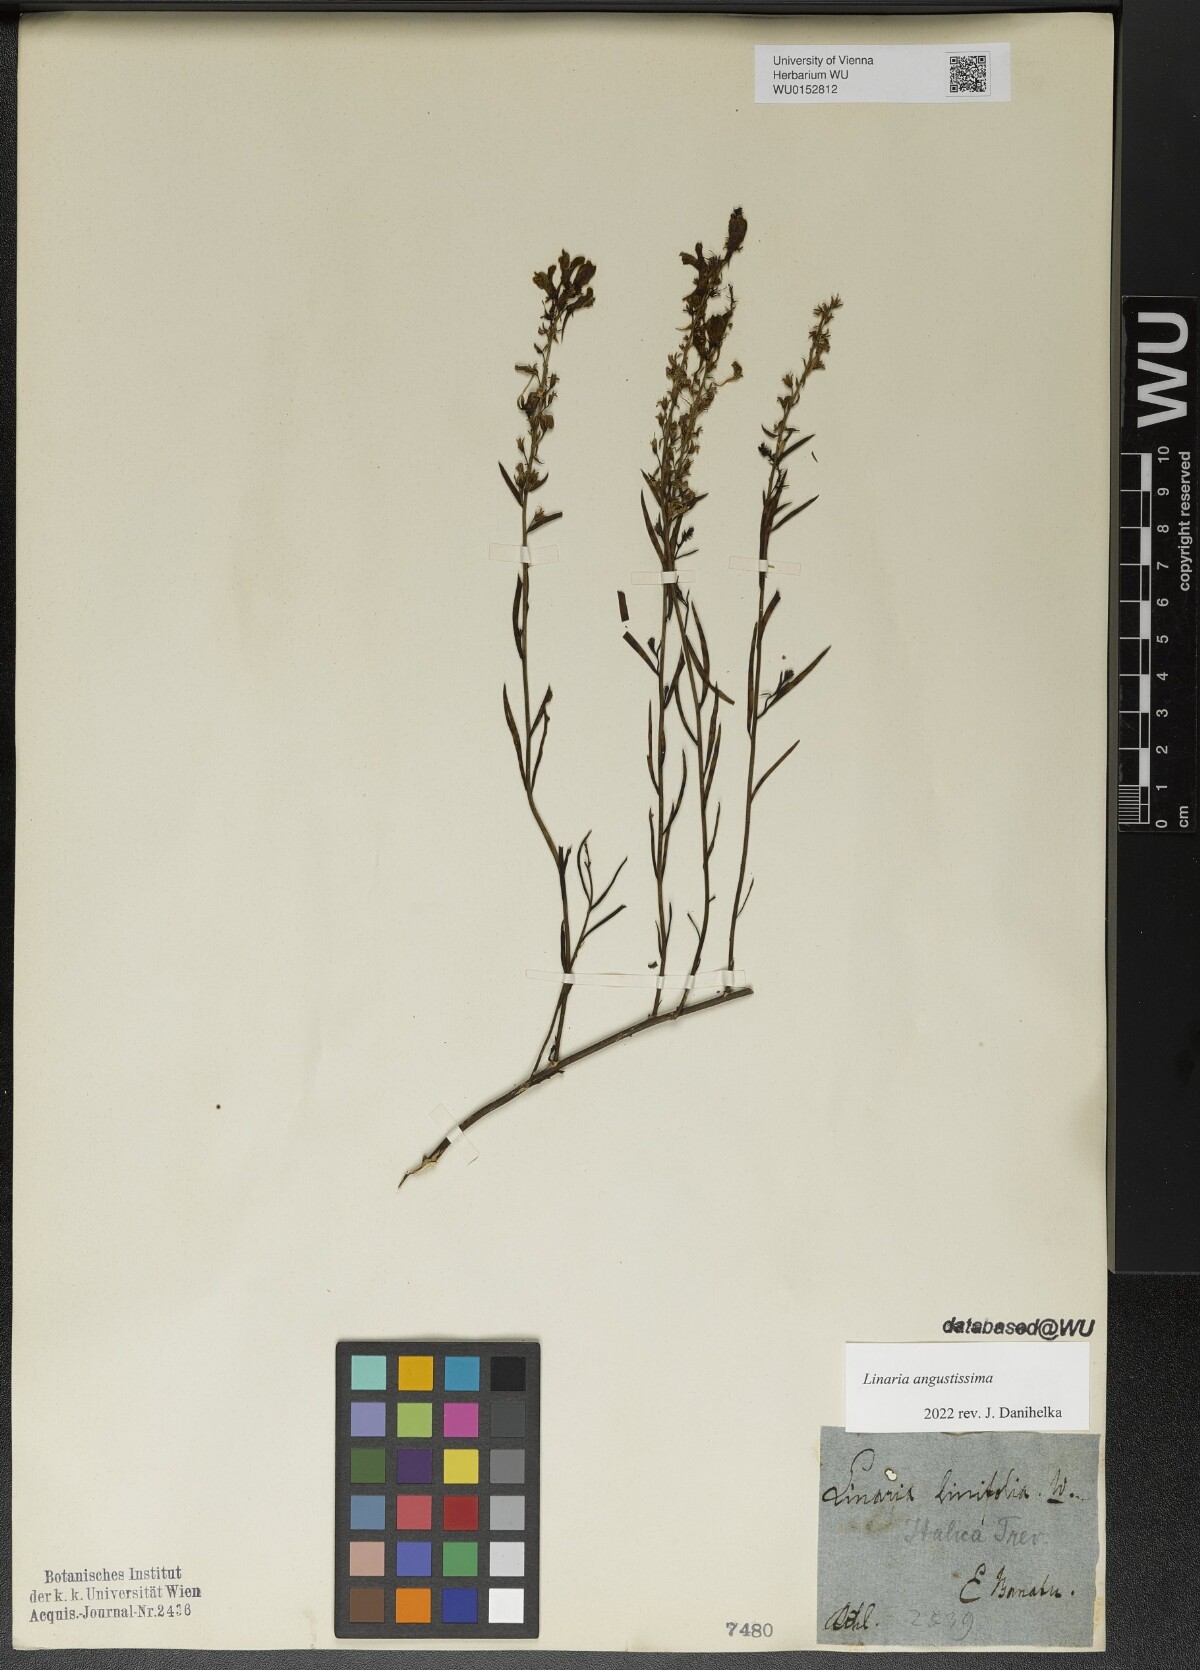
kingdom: Plantae
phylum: Tracheophyta
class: Magnoliopsida
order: Lamiales
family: Plantaginaceae
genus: Linaria
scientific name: Linaria angustissima
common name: Italian toadflax
